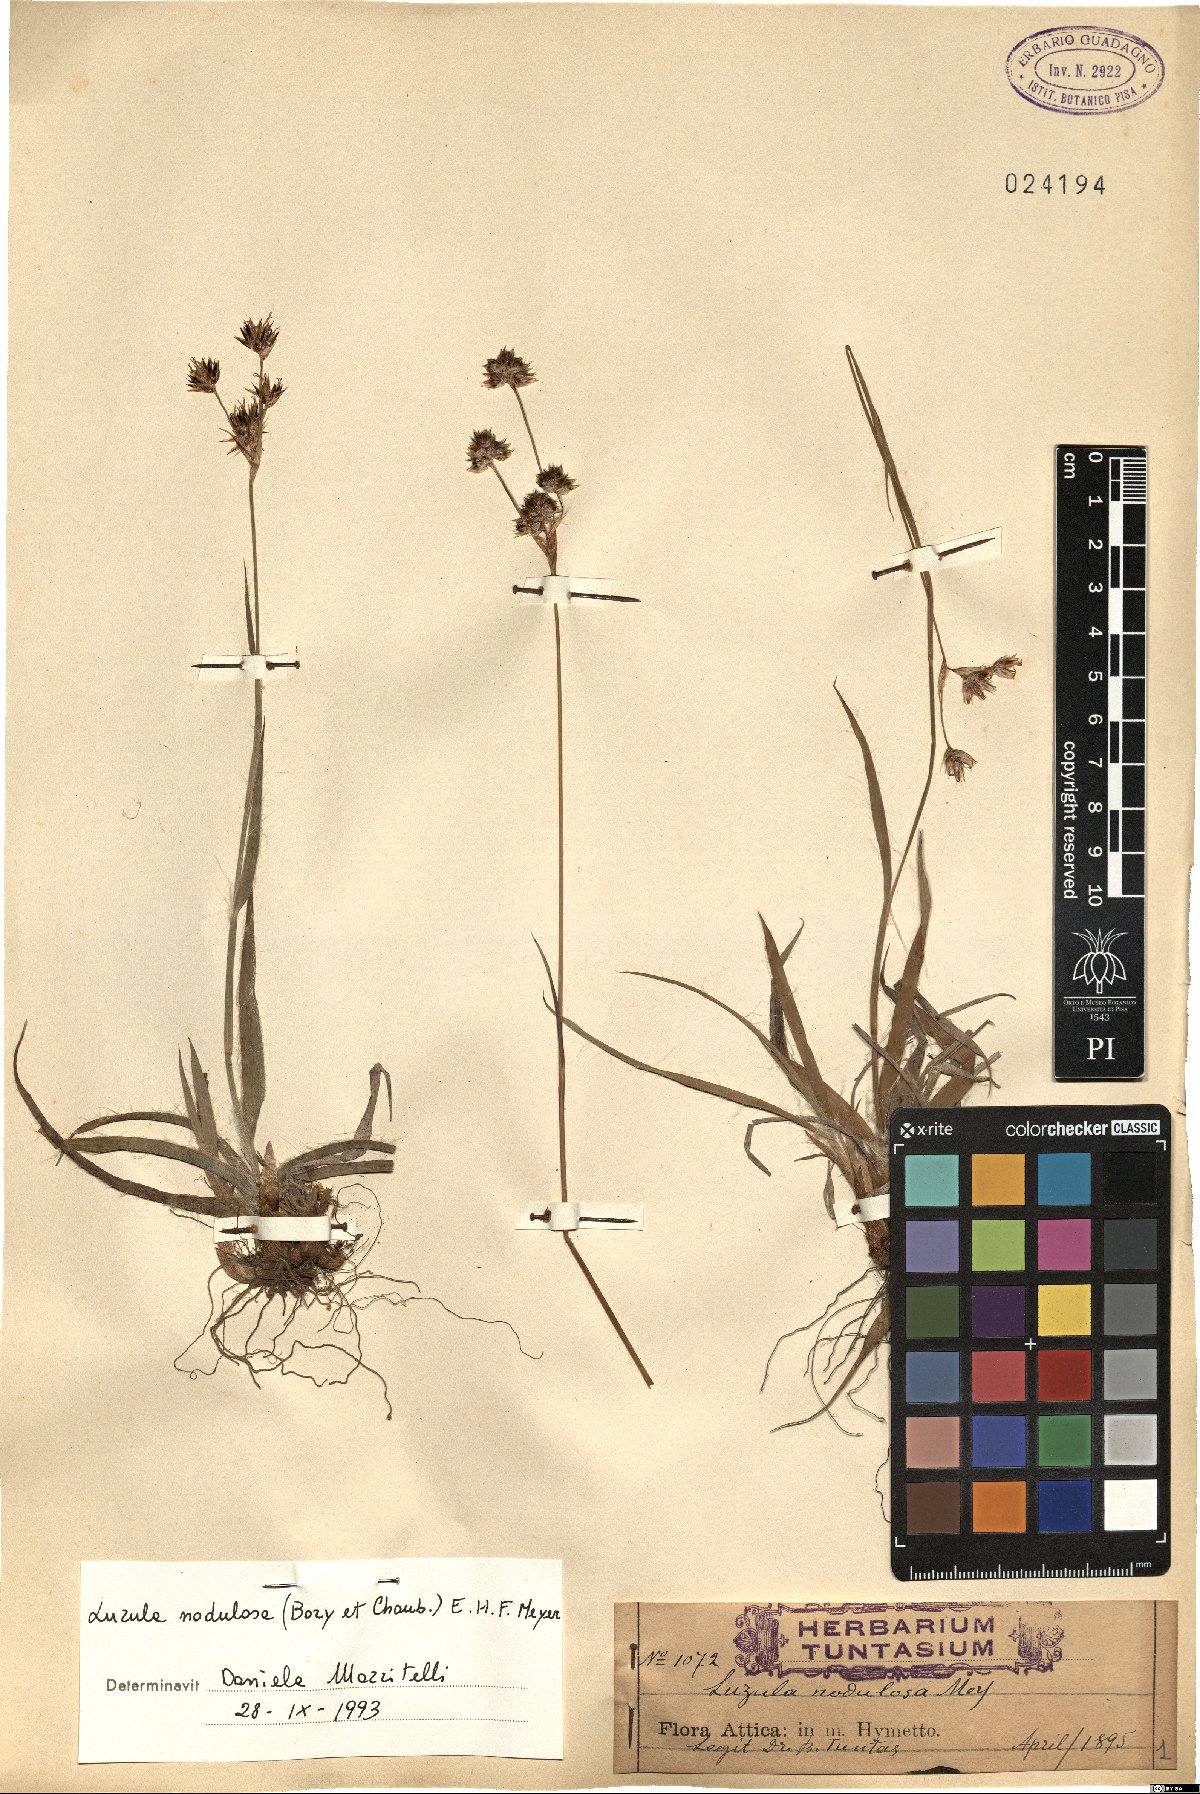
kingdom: Plantae
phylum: Tracheophyta
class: Liliopsida
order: Poales
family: Juncaceae
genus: Luzula
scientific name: Luzula nodulosa
